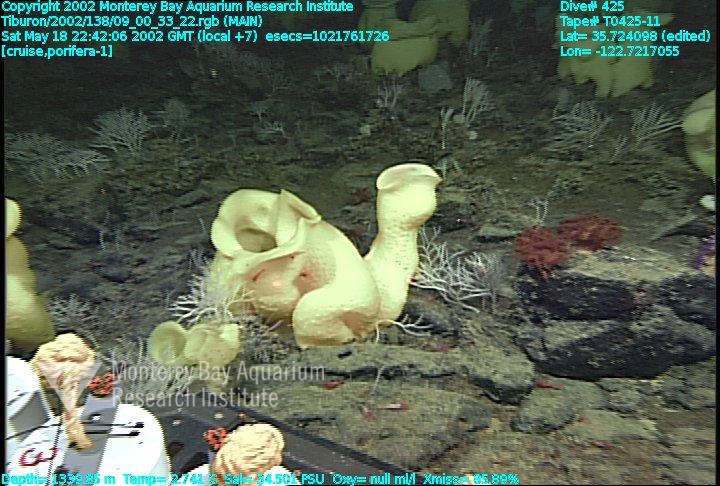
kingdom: Animalia
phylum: Porifera
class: Hexactinellida
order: Lyssacinosida
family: Rossellidae
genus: Staurocalyptus
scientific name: Staurocalyptus
